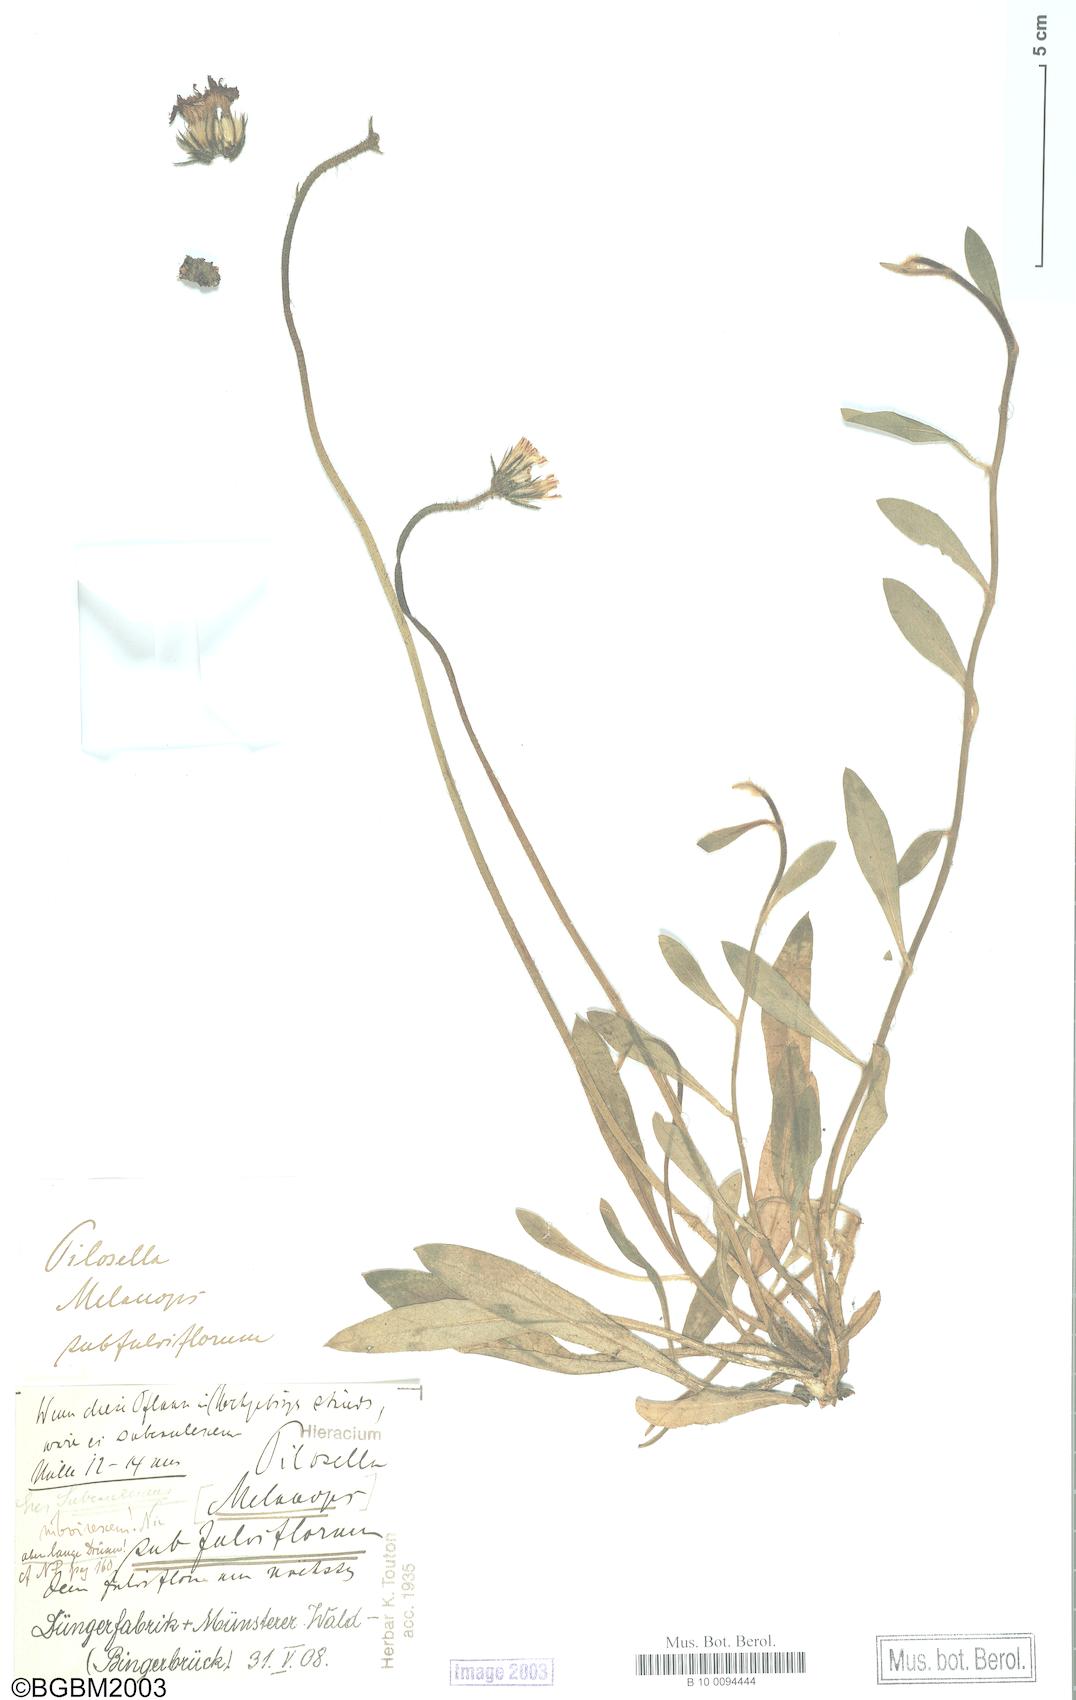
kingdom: Plantae
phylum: Tracheophyta
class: Magnoliopsida
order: Asterales
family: Asteraceae
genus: Pilosella
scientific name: Pilosella officinarum
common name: Mouse-ear hawkweed
